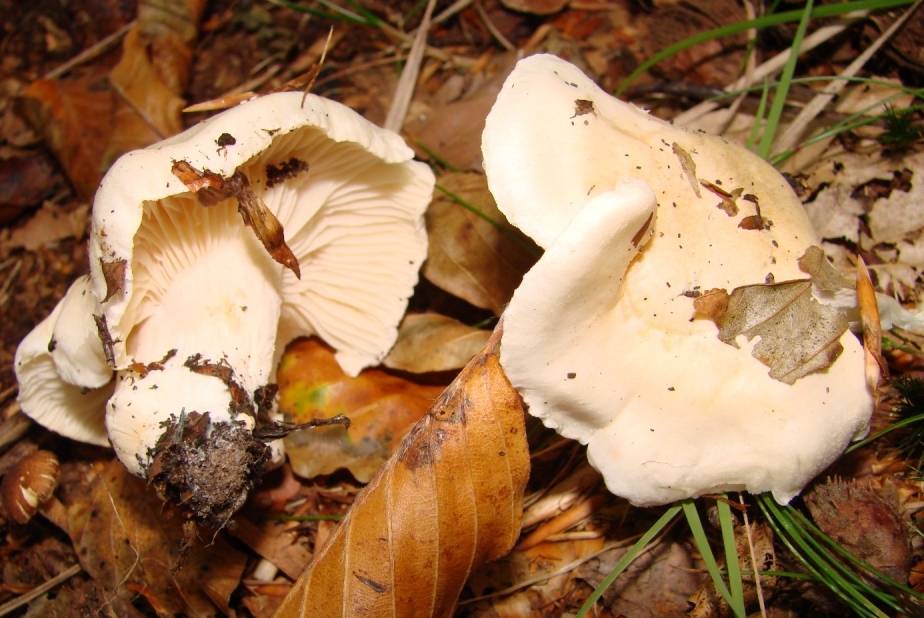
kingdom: Fungi
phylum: Basidiomycota
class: Agaricomycetes
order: Agaricales
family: Hygrophoraceae
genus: Hygrophorus
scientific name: Hygrophorus penarius
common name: spiselig sneglehat
